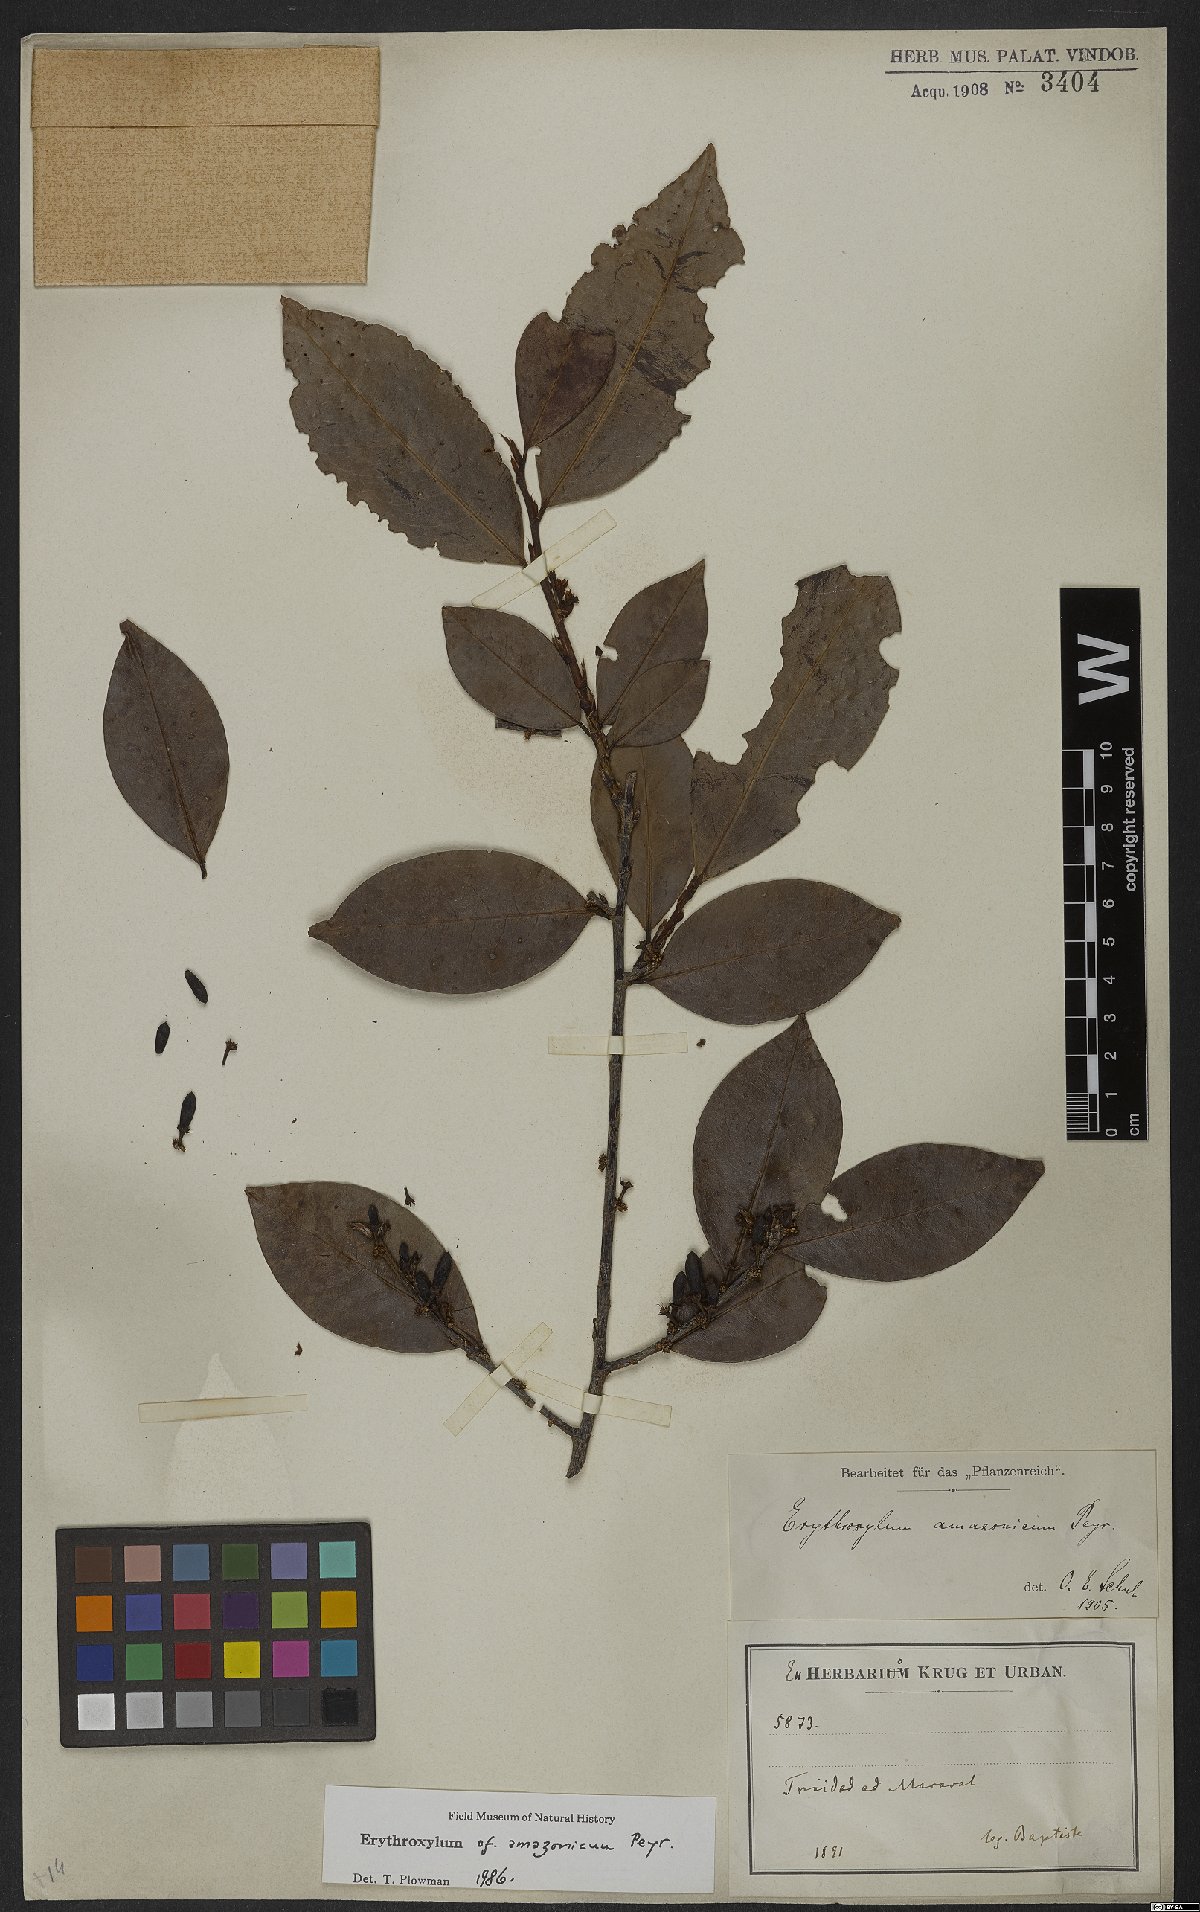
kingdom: Plantae
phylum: Tracheophyta
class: Magnoliopsida
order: Malpighiales
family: Erythroxylaceae
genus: Erythroxylum
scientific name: Erythroxylum amazonicum
